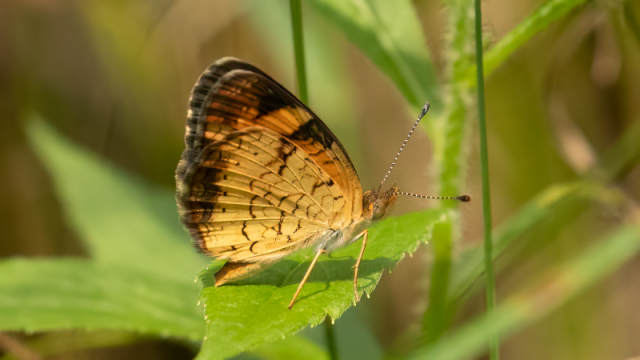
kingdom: Animalia
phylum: Arthropoda
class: Insecta
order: Lepidoptera
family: Nymphalidae
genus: Phyciodes
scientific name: Phyciodes tharos
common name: Northern Crescent
